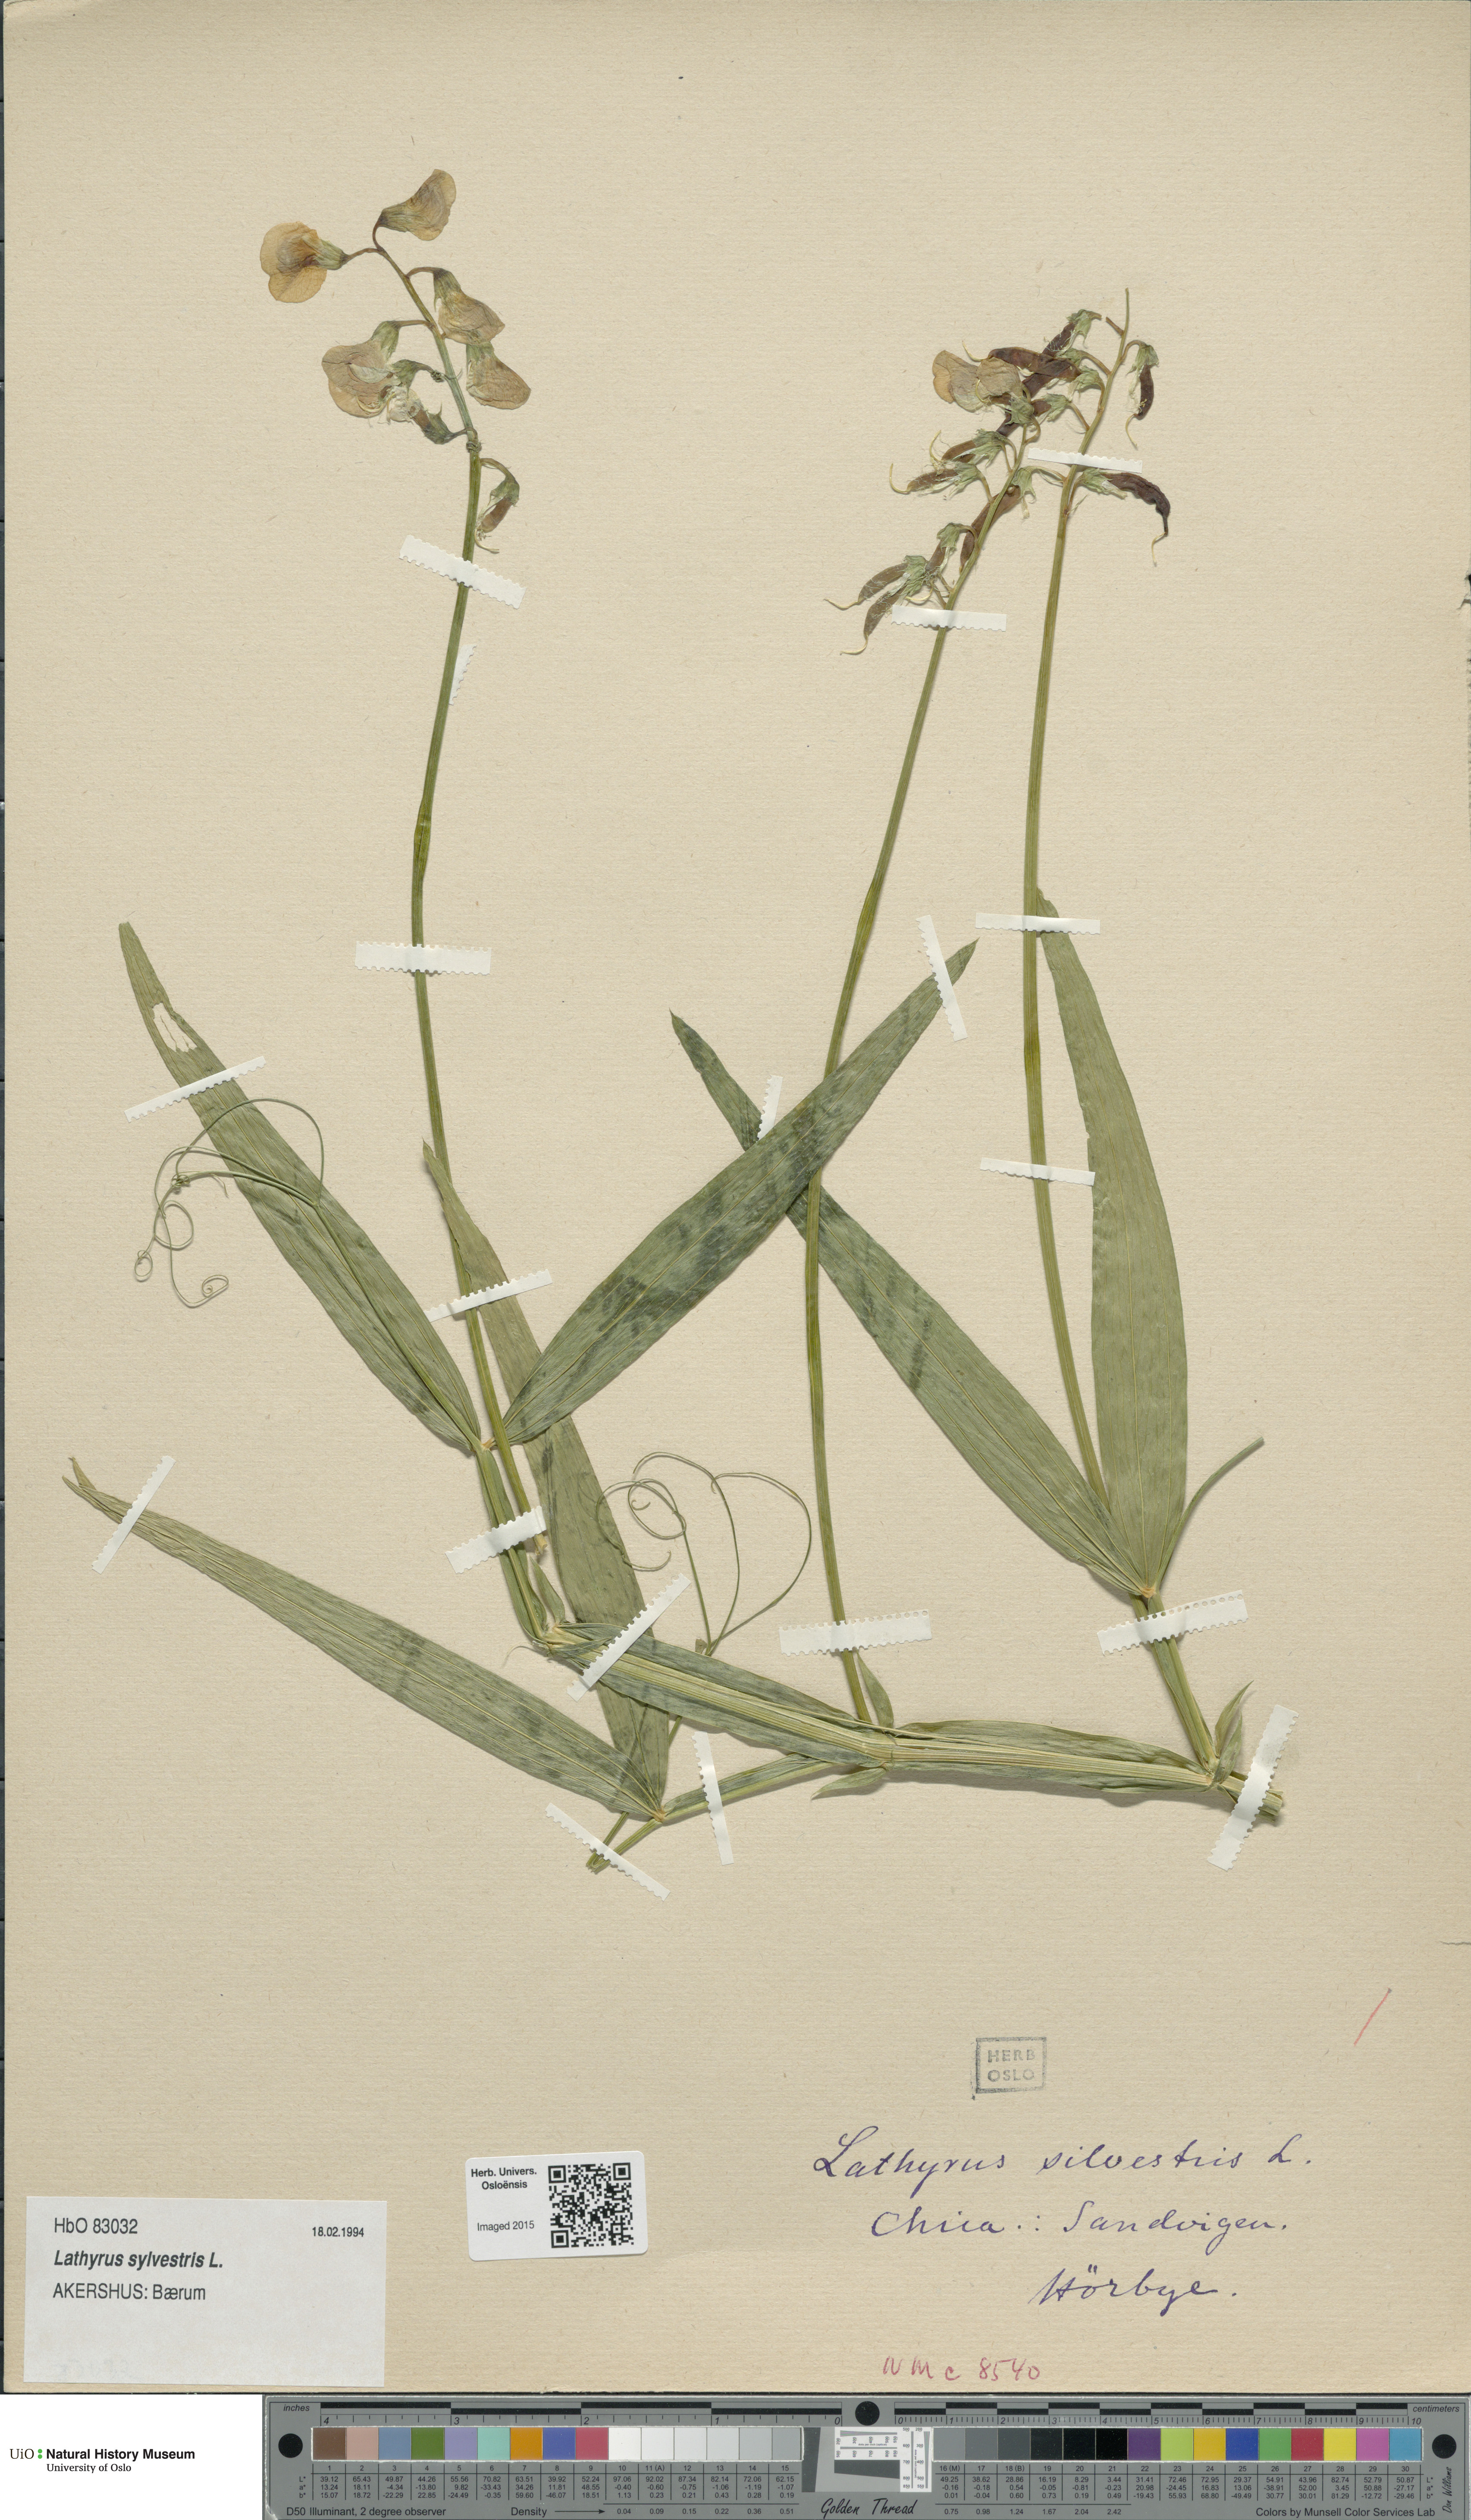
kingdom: Plantae
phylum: Tracheophyta
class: Magnoliopsida
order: Fabales
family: Fabaceae
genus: Lathyrus
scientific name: Lathyrus sylvestris
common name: Flat pea
